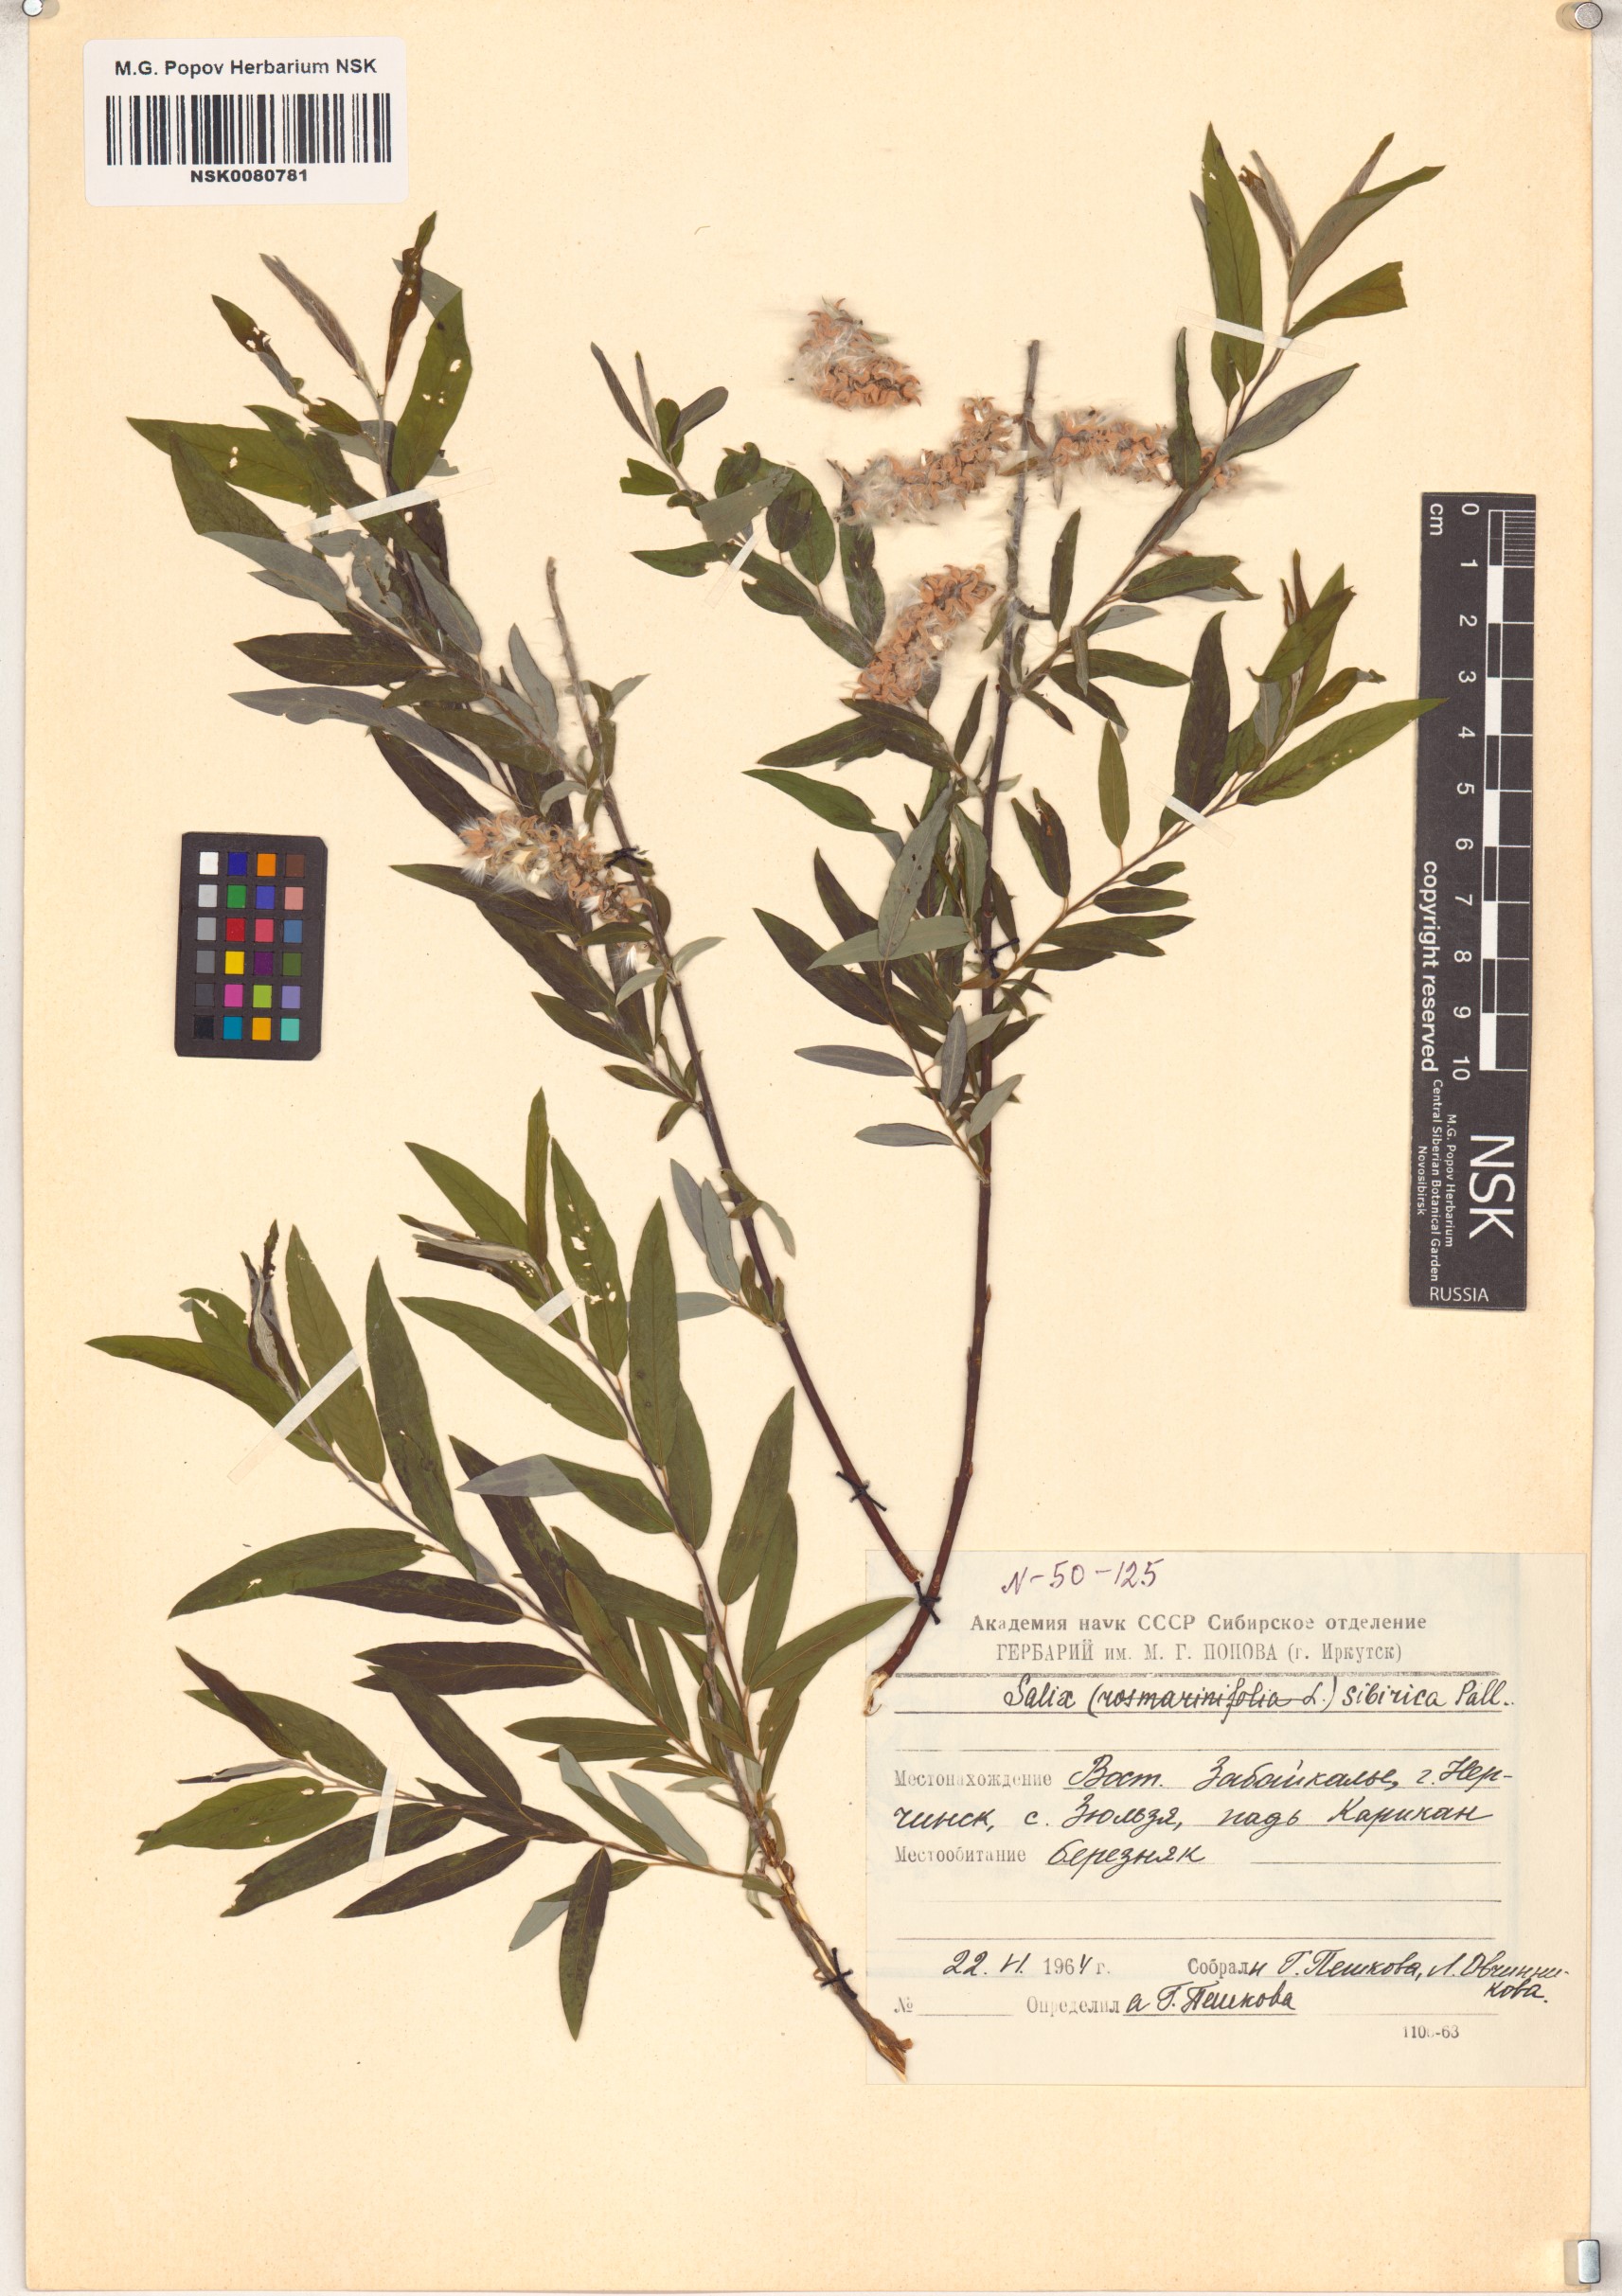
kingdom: Plantae
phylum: Tracheophyta
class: Magnoliopsida
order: Malpighiales
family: Salicaceae
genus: Salix
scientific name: Salix rosmarinifolia
